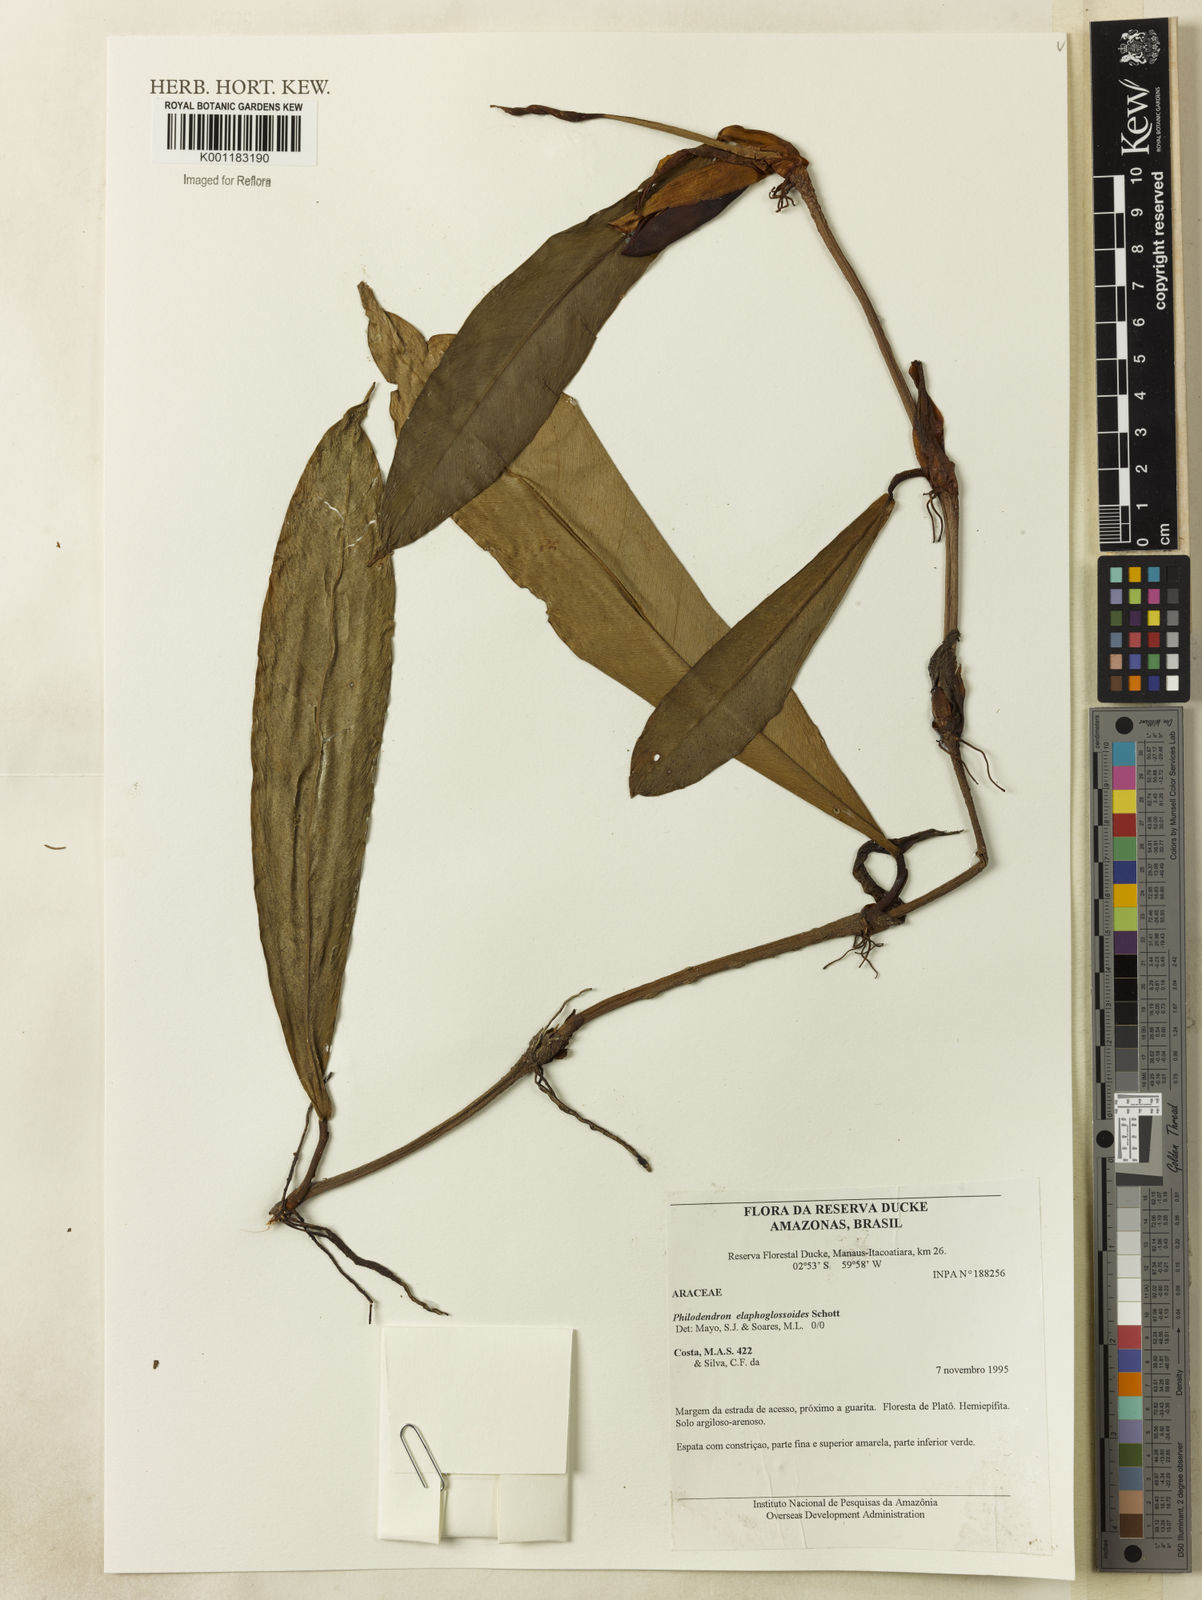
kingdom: Plantae
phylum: Tracheophyta
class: Liliopsida
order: Alismatales
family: Araceae
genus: Philodendron
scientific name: Philodendron elaphoglossoides
